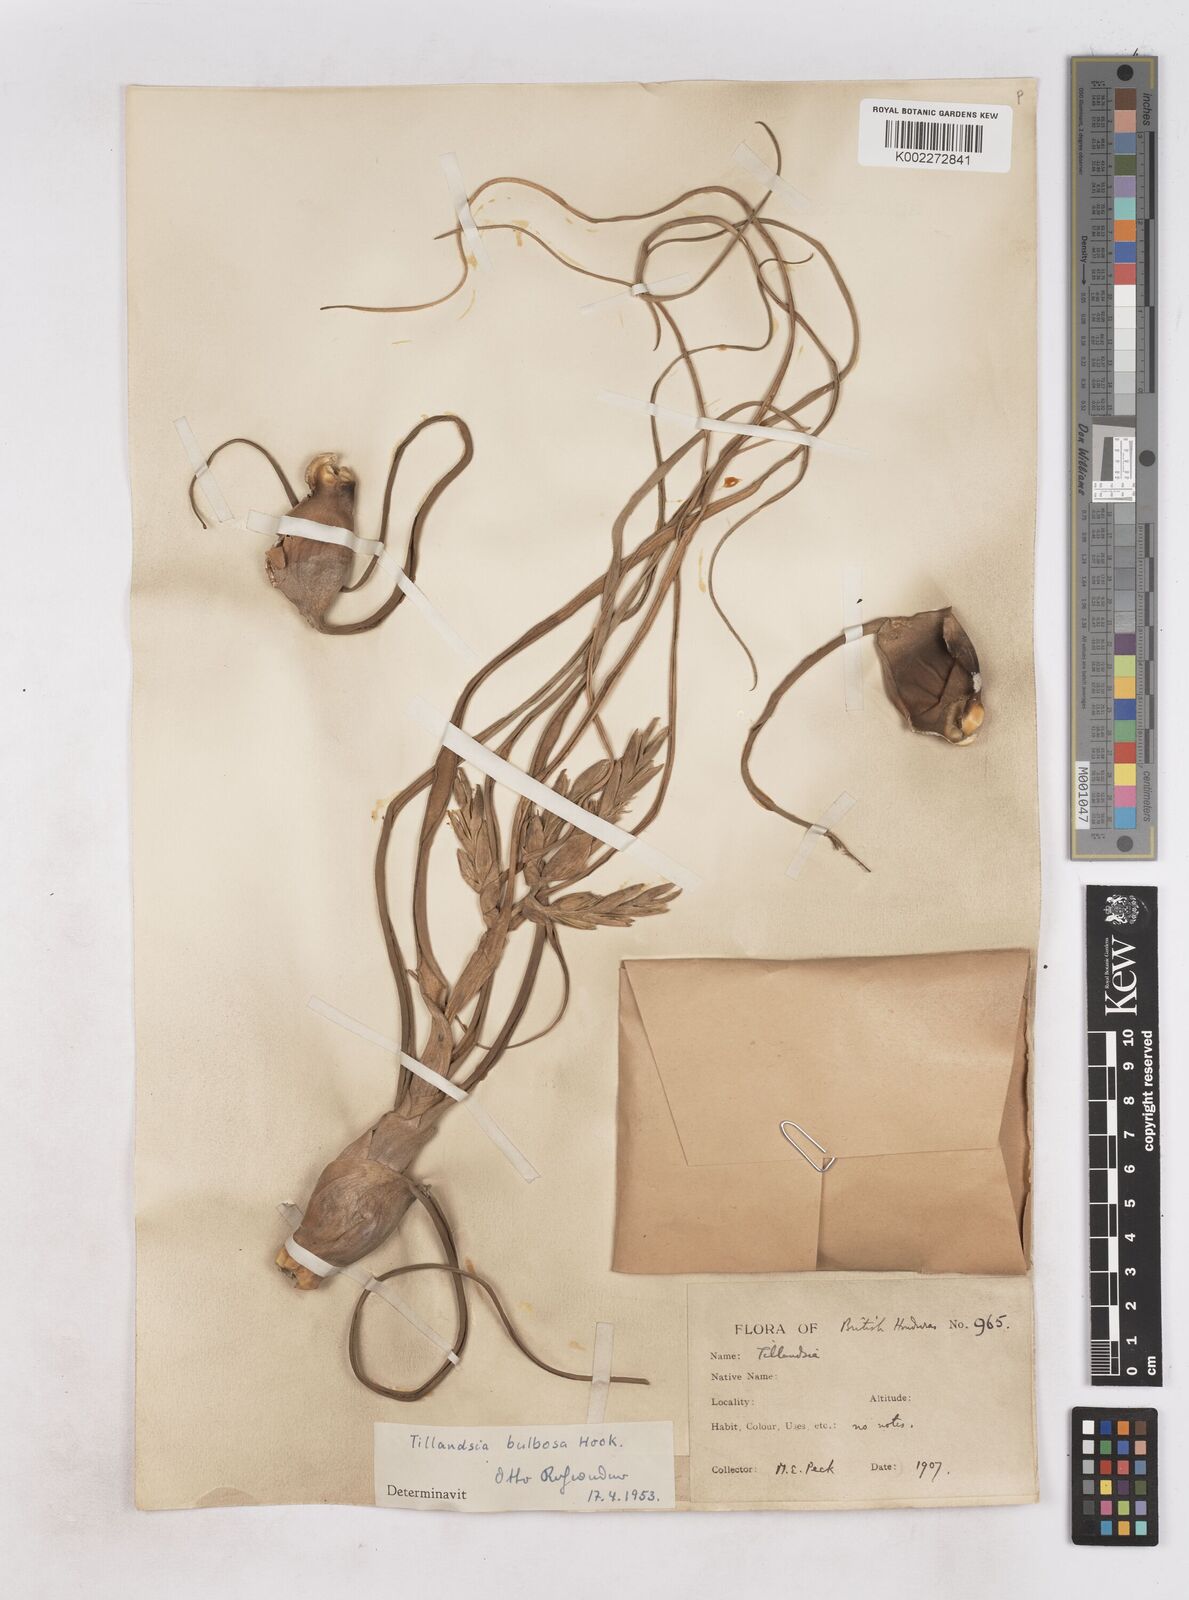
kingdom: Plantae
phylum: Tracheophyta
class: Liliopsida
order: Poales
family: Bromeliaceae
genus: Tillandsia
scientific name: Tillandsia bulbosa
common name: Bulbous airplant
